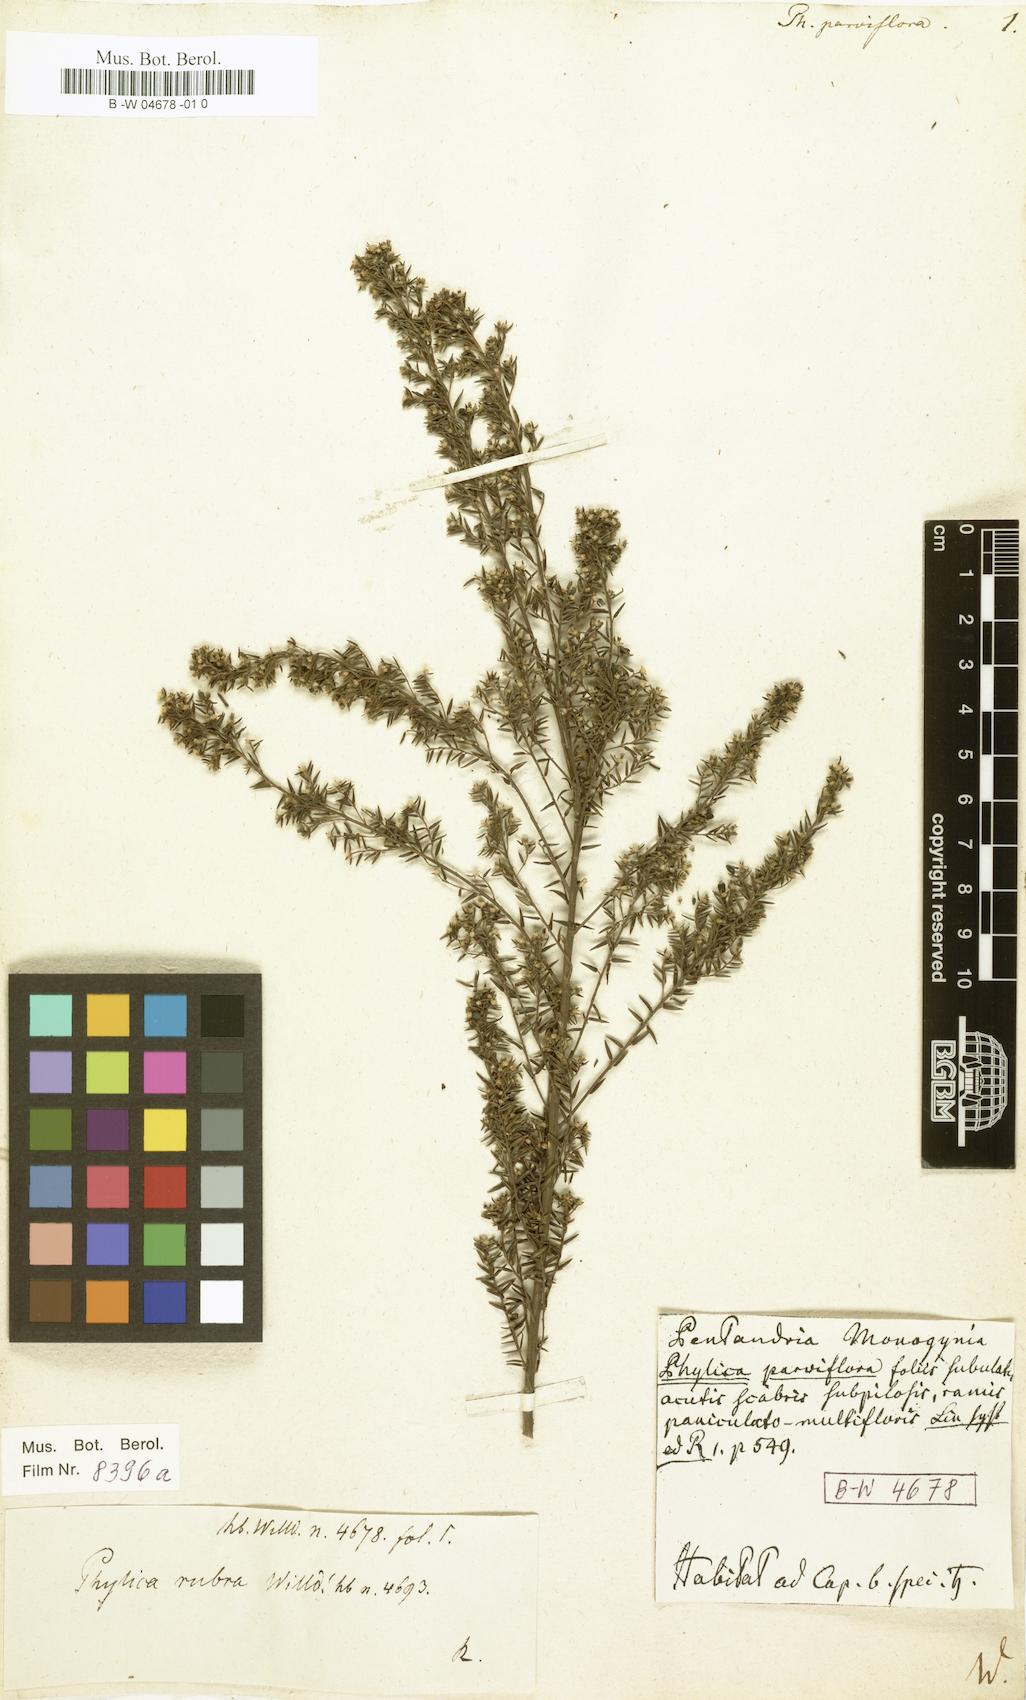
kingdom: Plantae
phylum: Tracheophyta
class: Magnoliopsida
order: Rosales
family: Rhamnaceae
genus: Phylica
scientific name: Phylica parviflora
